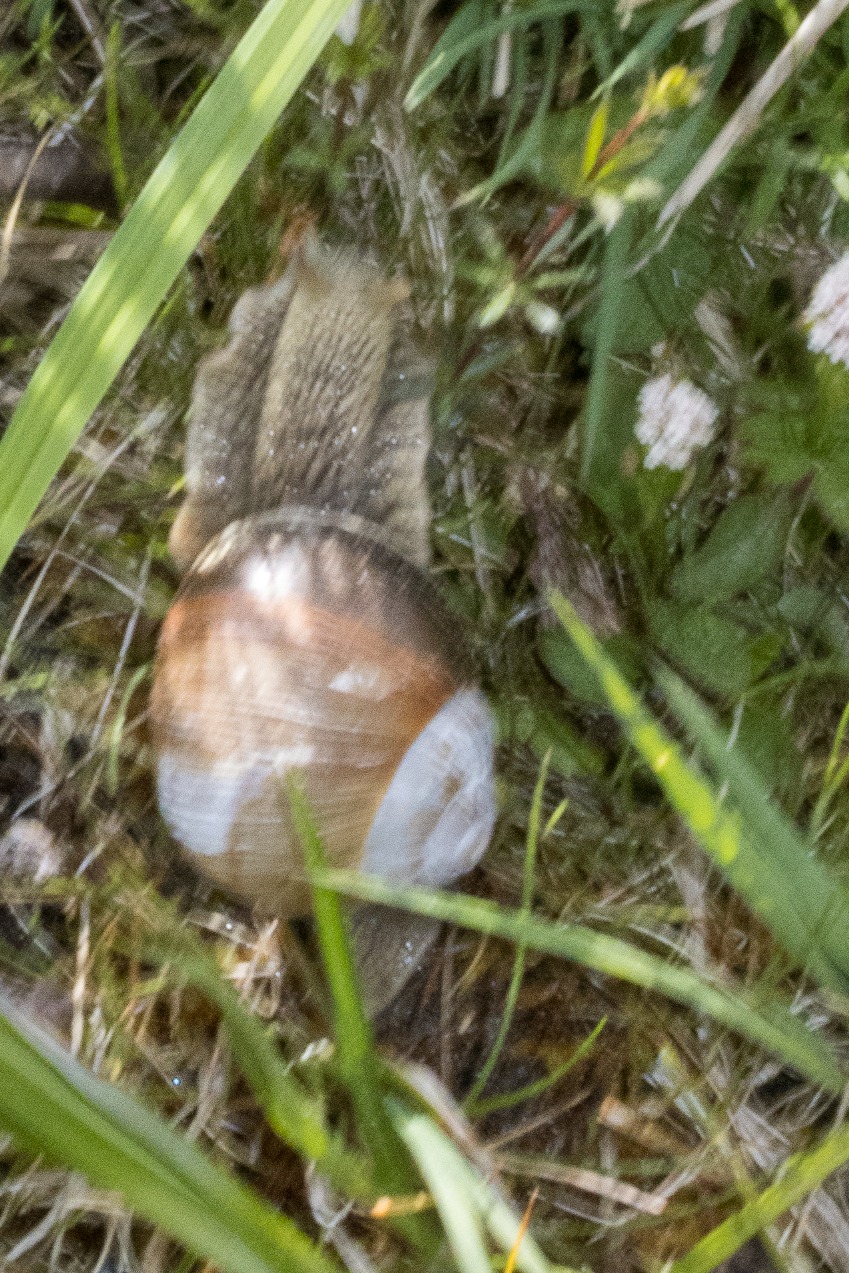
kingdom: Animalia
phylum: Mollusca
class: Gastropoda
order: Stylommatophora
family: Helicidae
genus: Helix
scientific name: Helix pomatia
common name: Vinbjergsnegl
